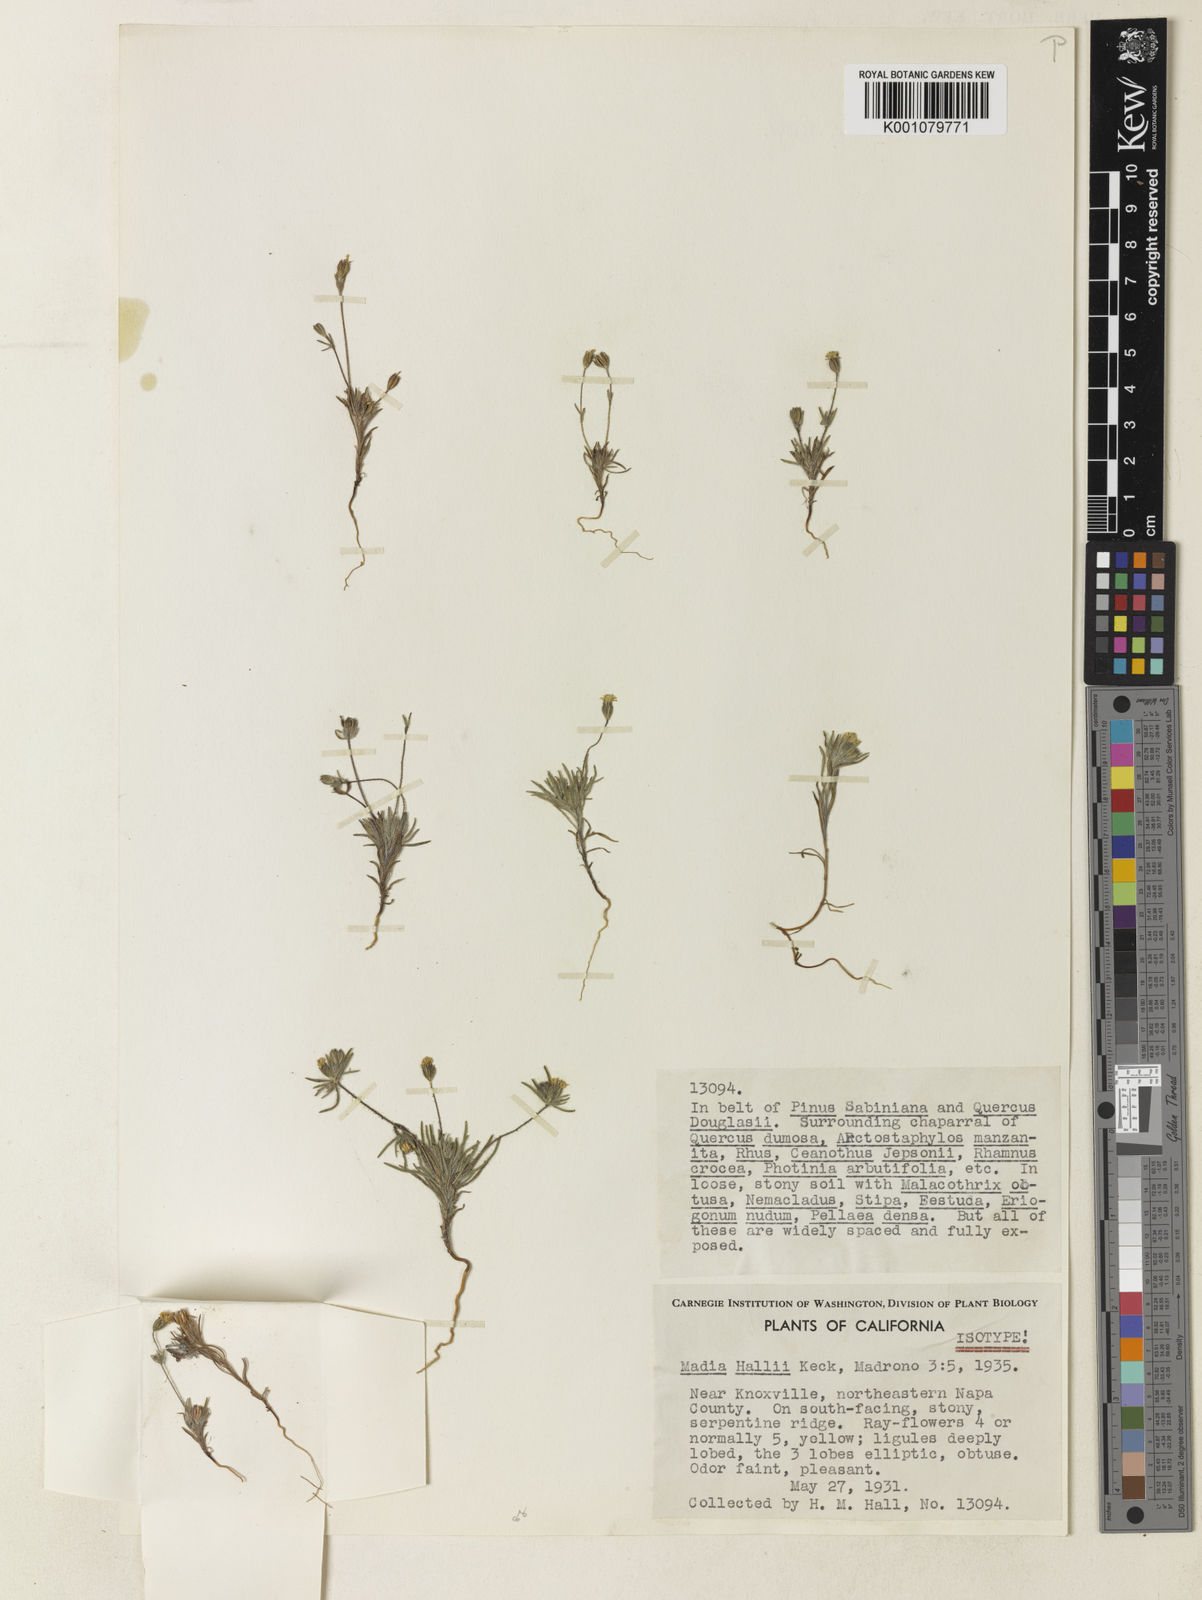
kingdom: Plantae
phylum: Tracheophyta
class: Magnoliopsida
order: Asterales
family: Asteraceae
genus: Harmonia
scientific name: Harmonia hallii
